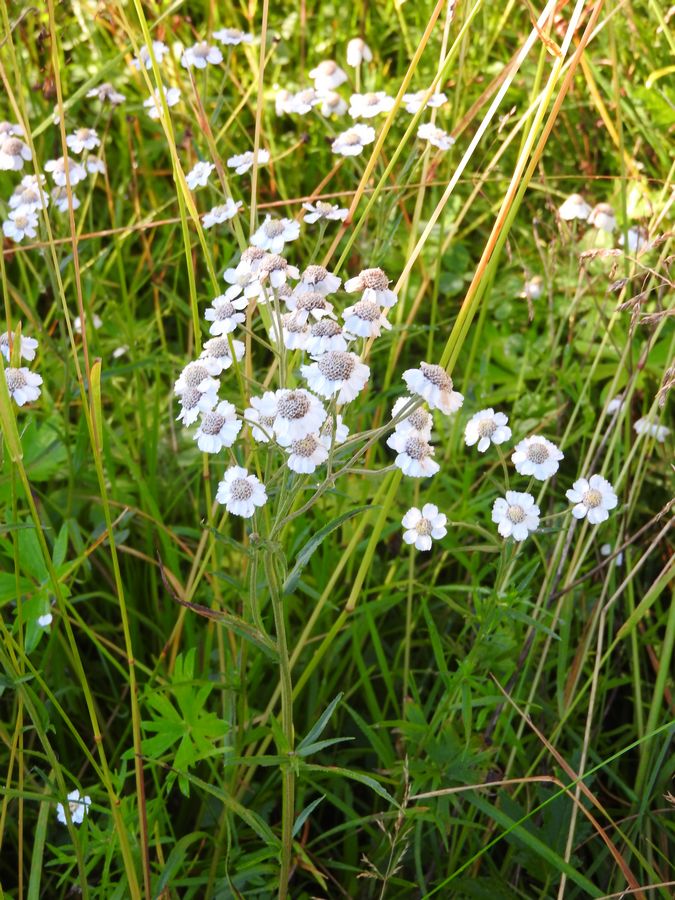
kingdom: Plantae
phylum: Tracheophyta
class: Magnoliopsida
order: Asterales
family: Asteraceae
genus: Achillea
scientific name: Achillea ptarmica
